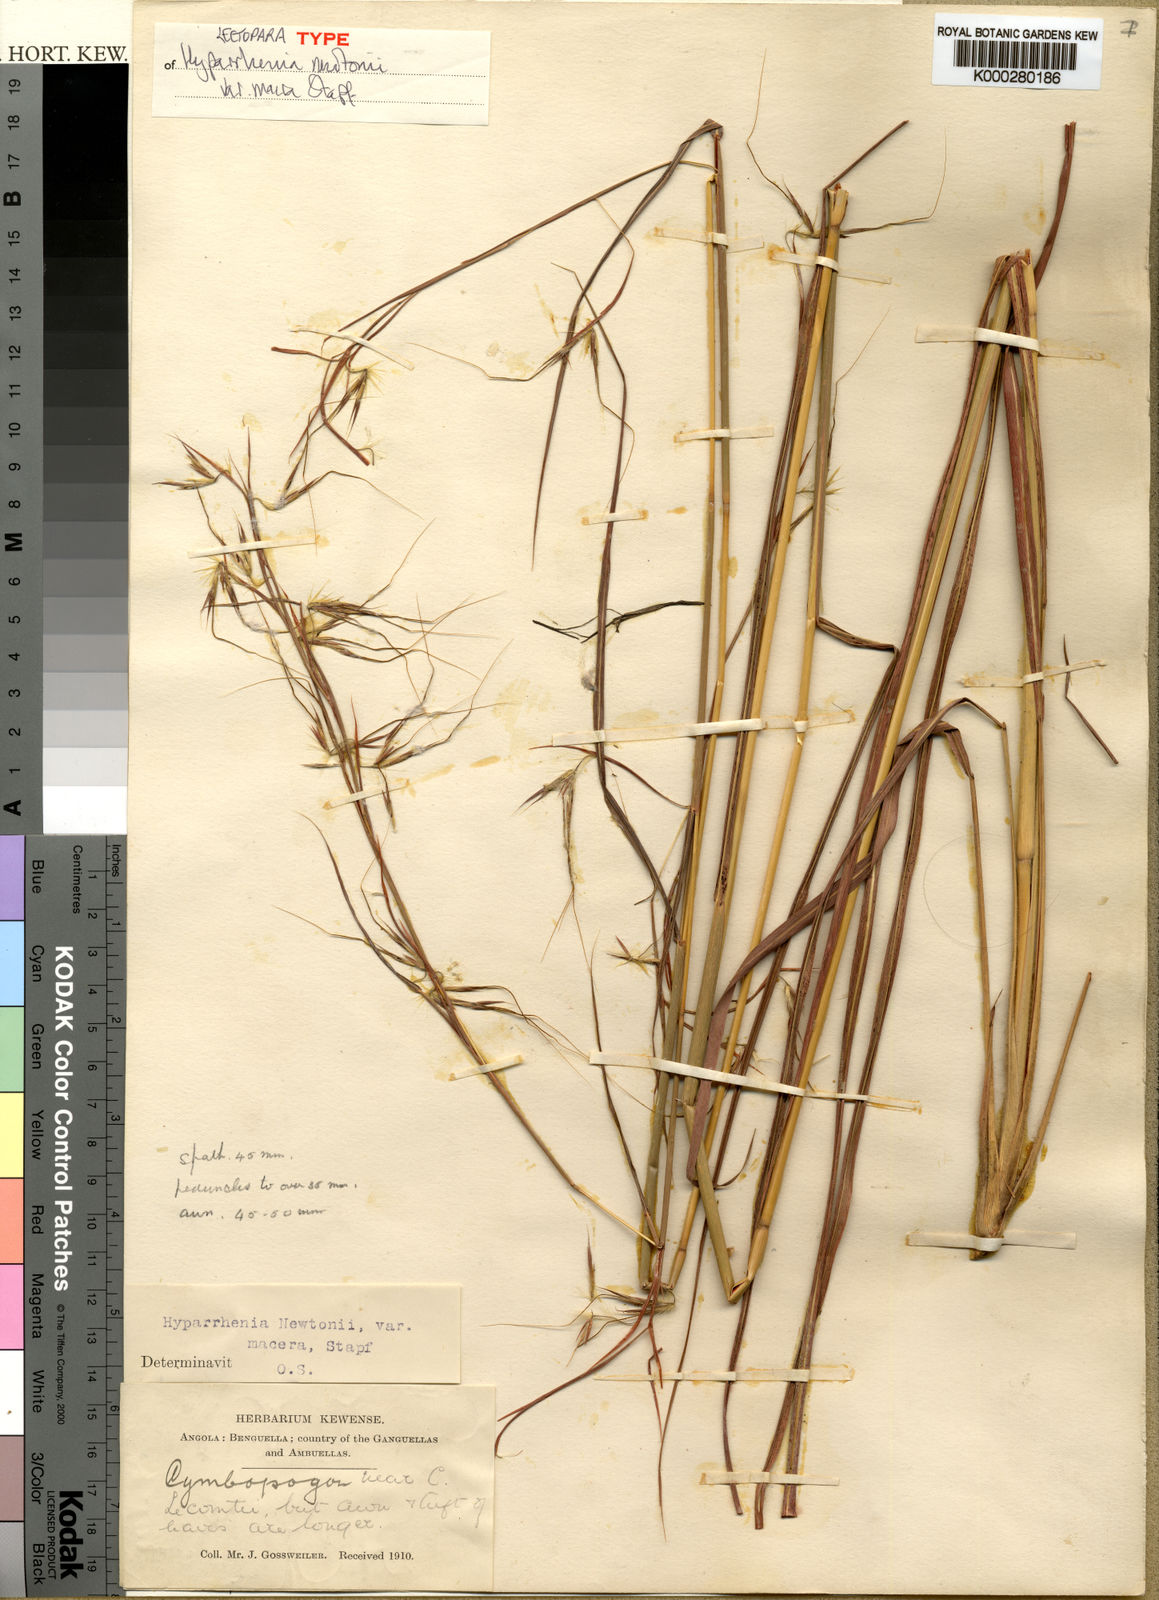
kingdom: Plantae
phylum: Tracheophyta
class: Liliopsida
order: Poales
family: Poaceae
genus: Hyparrhenia
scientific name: Hyparrhenia newtonii
